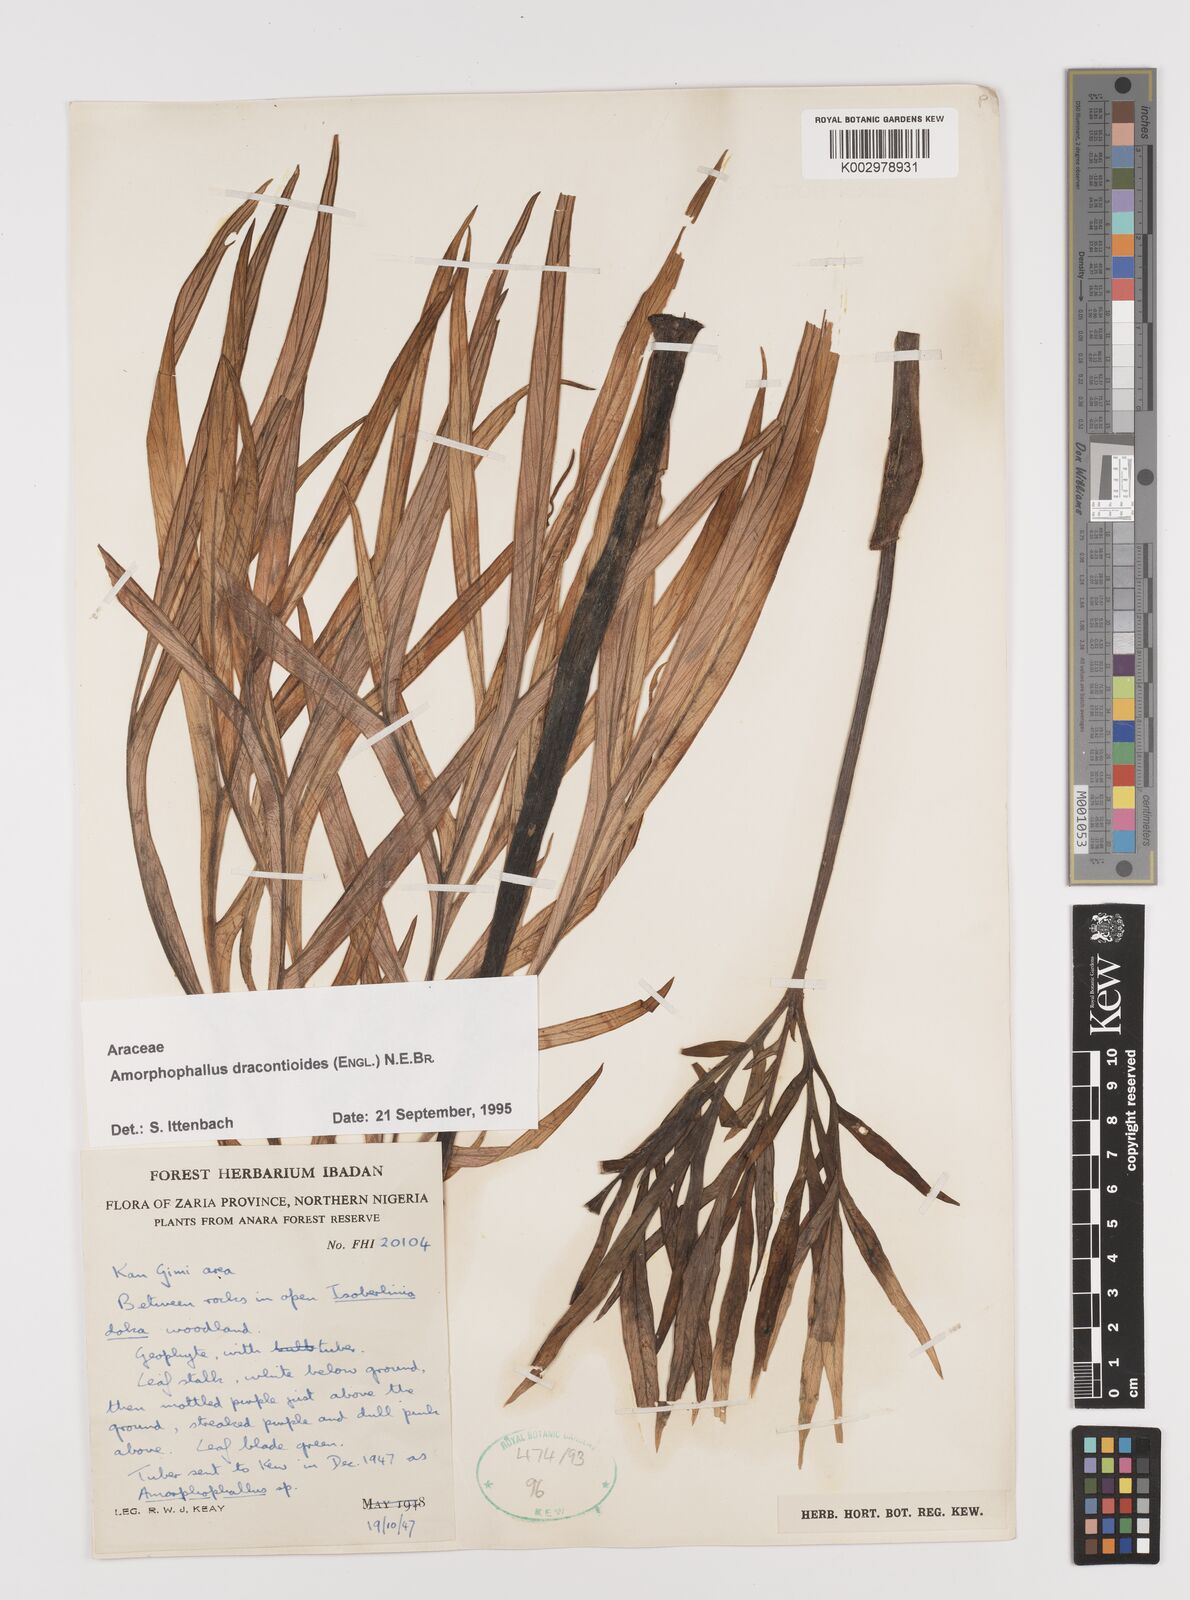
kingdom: Plantae
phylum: Tracheophyta
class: Liliopsida
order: Alismatales
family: Araceae
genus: Amorphophallus
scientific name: Amorphophallus dracontioides
